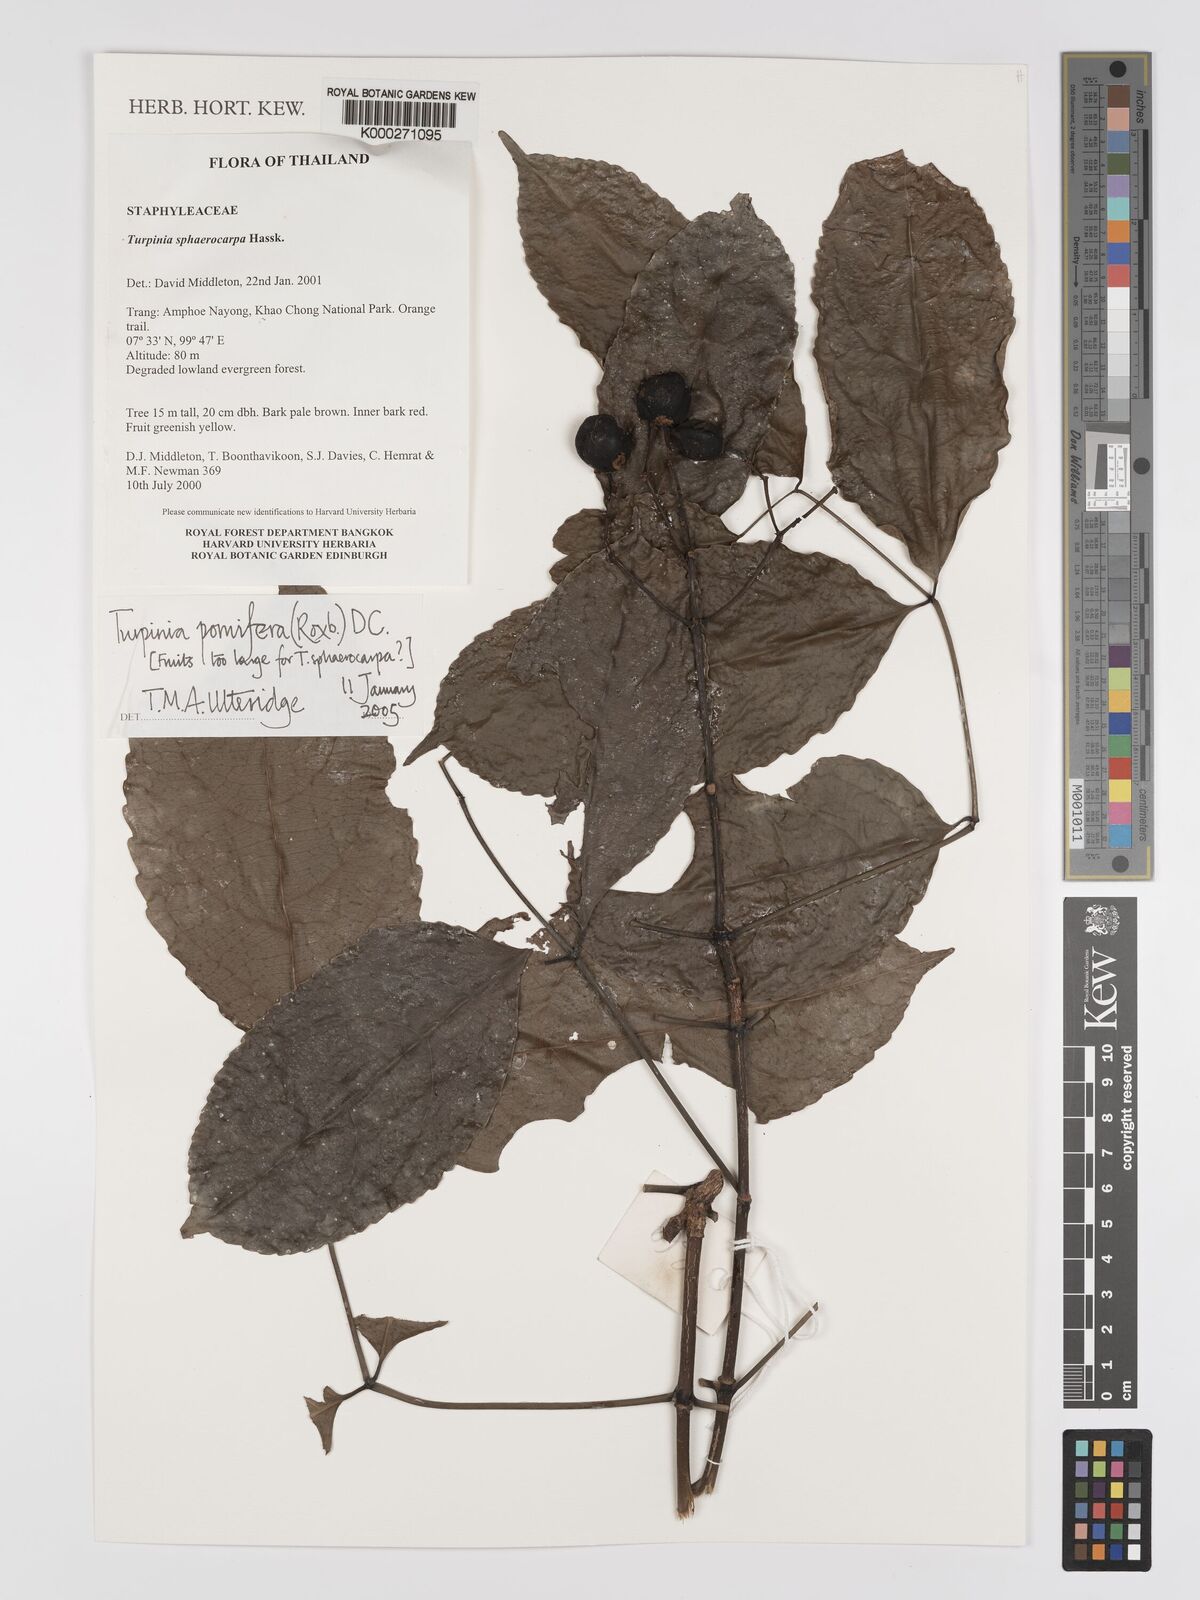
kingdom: Plantae
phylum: Tracheophyta
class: Magnoliopsida
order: Crossosomatales
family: Staphyleaceae
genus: Dalrympelea
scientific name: Dalrympelea pomifera
